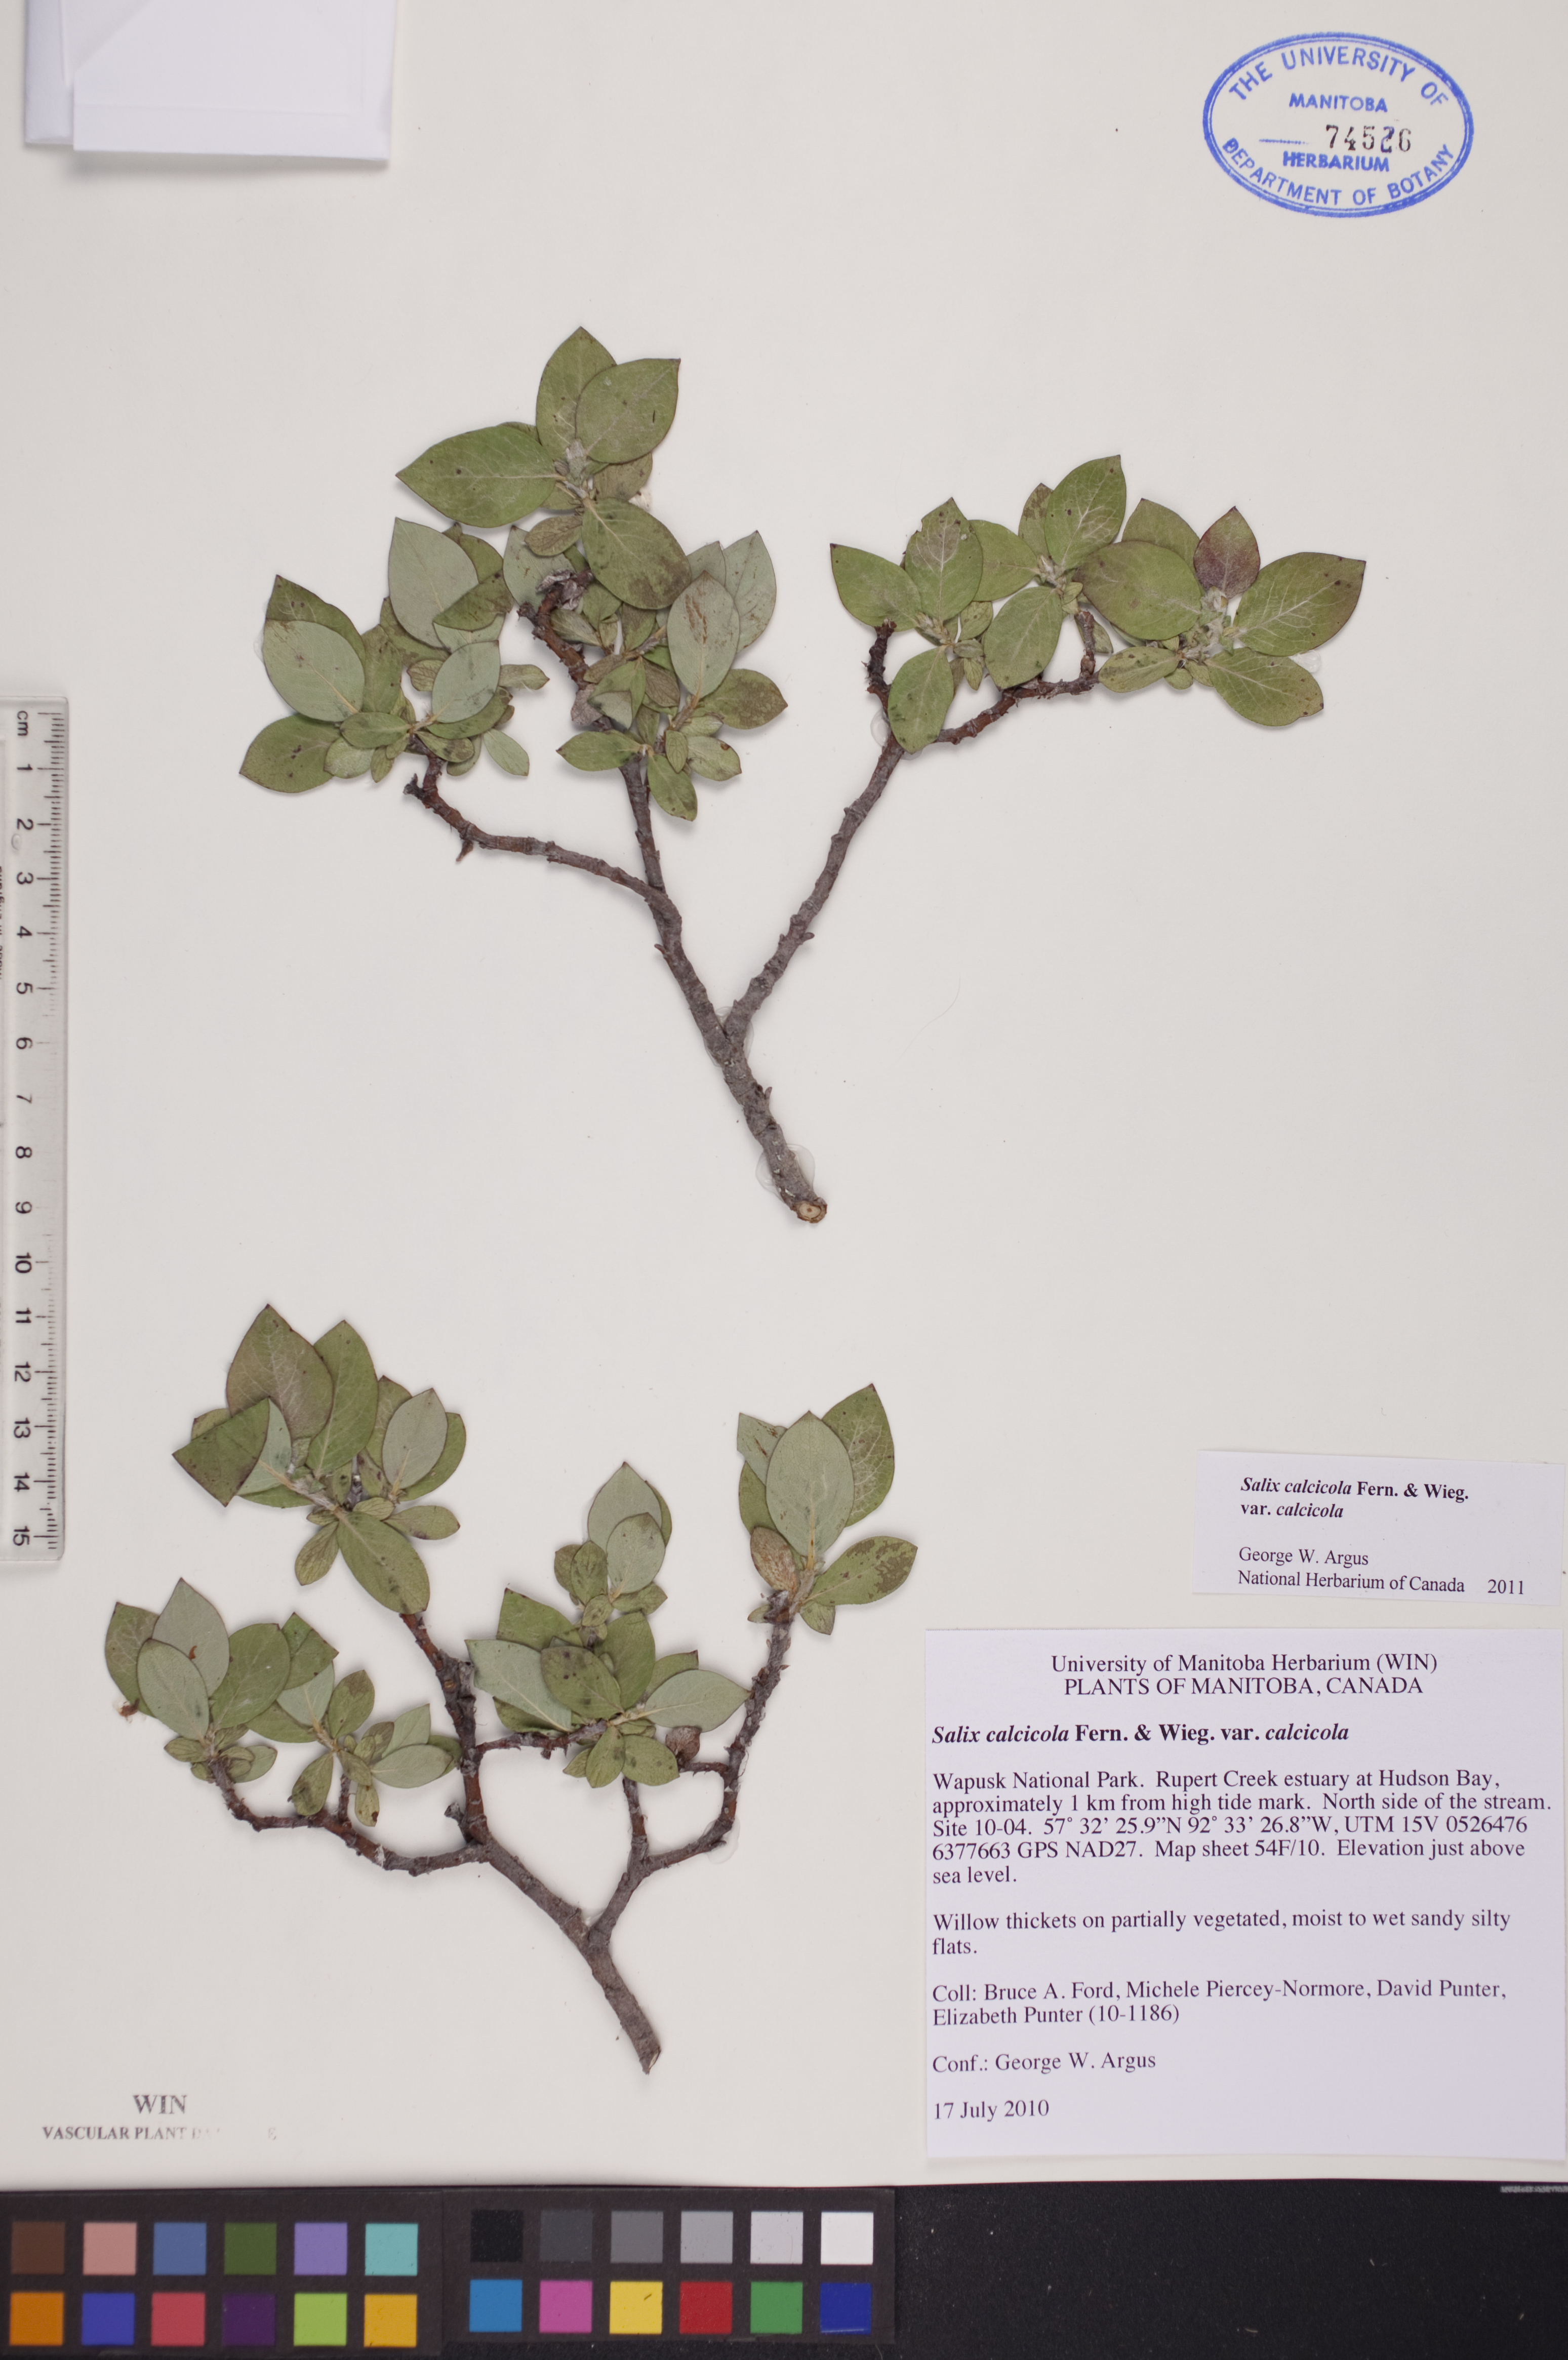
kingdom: Plantae
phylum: Tracheophyta
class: Magnoliopsida
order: Malpighiales
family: Salicaceae
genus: Salix
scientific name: Salix calcicola
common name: Calcareous willow
